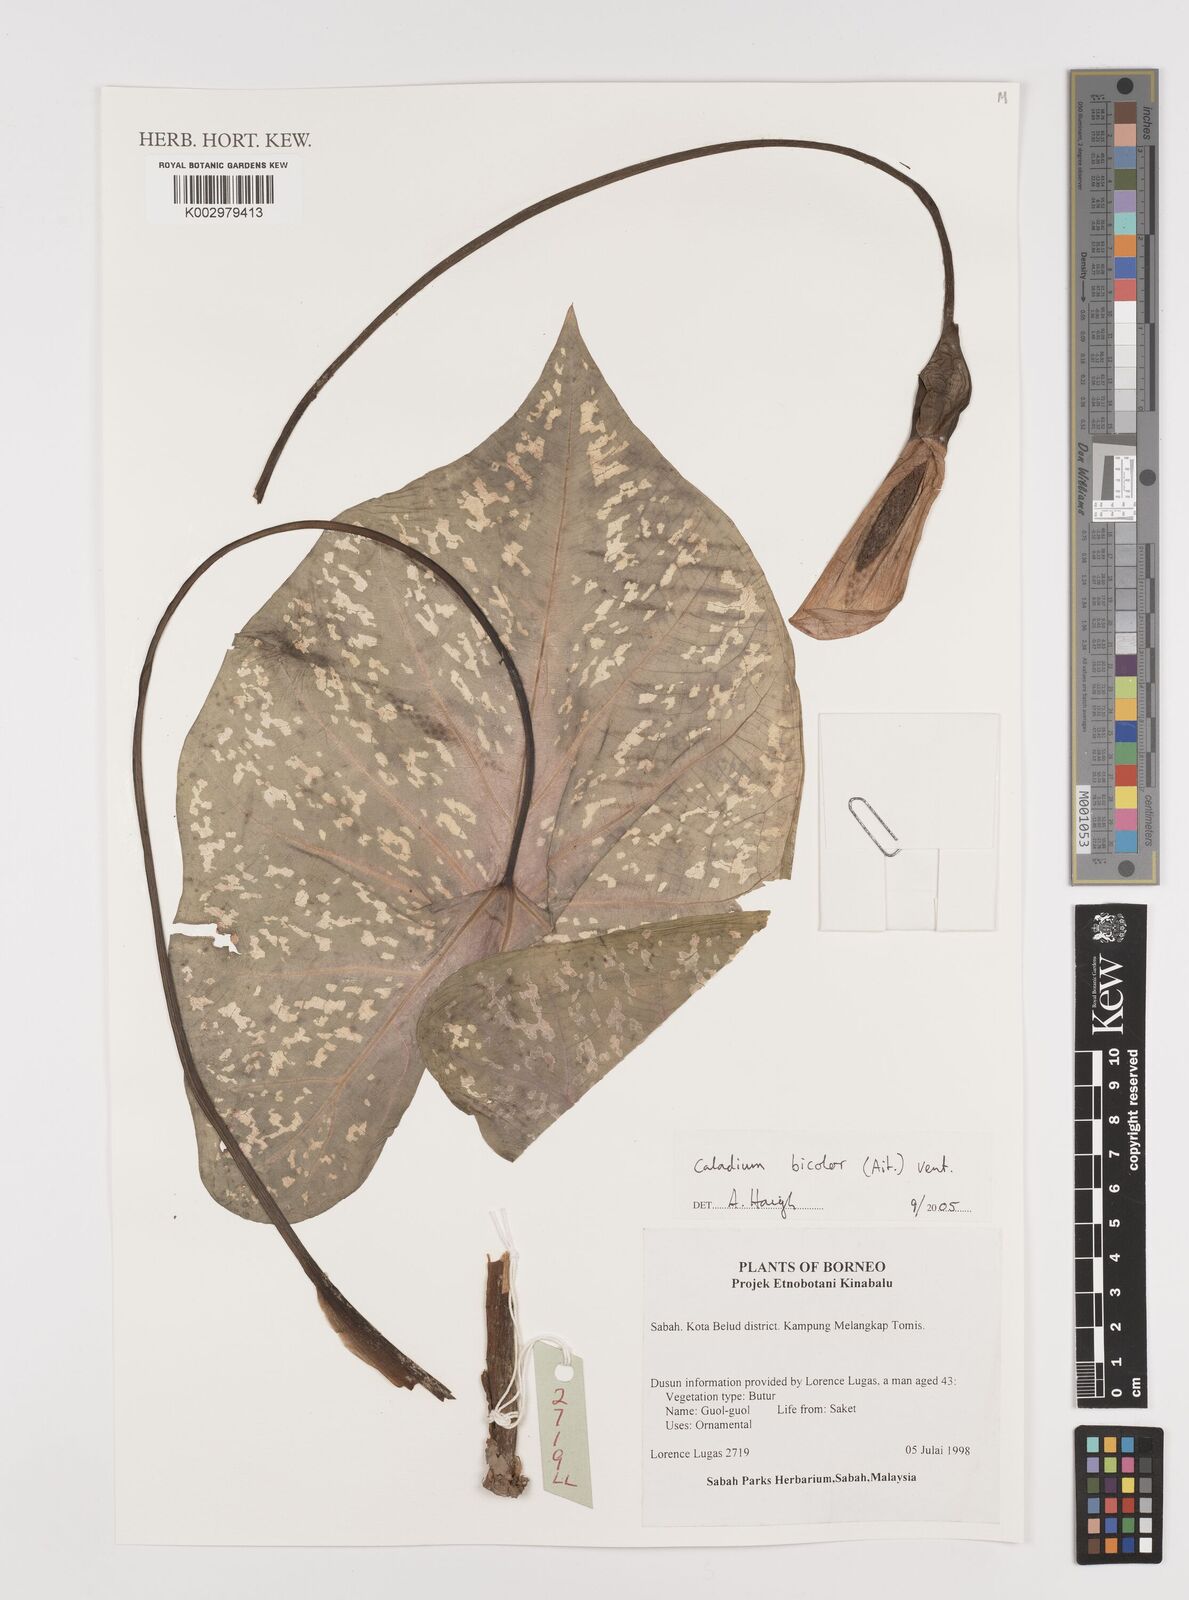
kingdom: Plantae
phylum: Tracheophyta
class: Liliopsida
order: Alismatales
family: Araceae
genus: Caladium
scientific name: Caladium bicolor
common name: Artist's pallet
